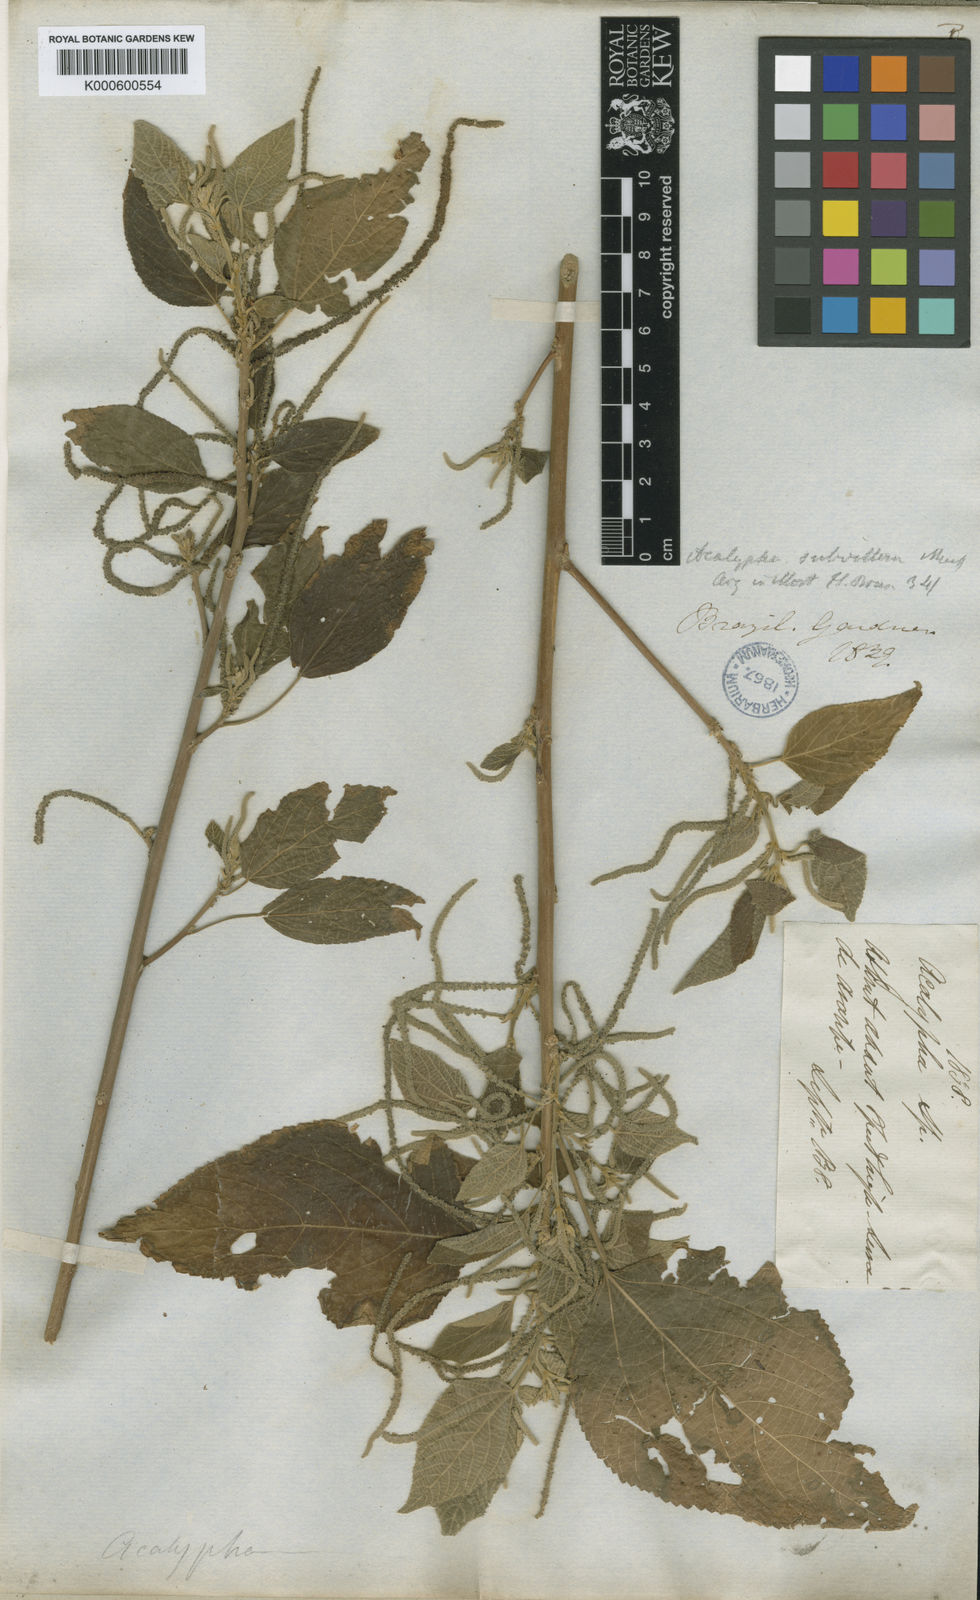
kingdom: Plantae
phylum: Tracheophyta
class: Magnoliopsida
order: Malpighiales
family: Euphorbiaceae
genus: Acalypha
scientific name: Acalypha villosa
